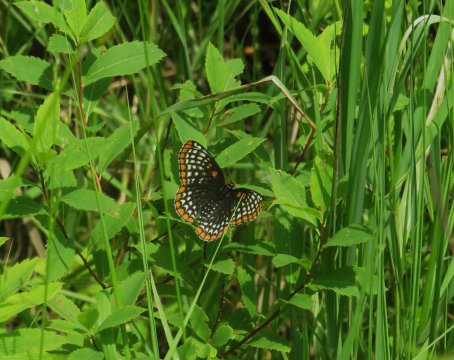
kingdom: Animalia
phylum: Arthropoda
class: Insecta
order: Lepidoptera
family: Nymphalidae
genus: Euphydryas
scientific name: Euphydryas phaeton
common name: Baltimore Checkerspot
